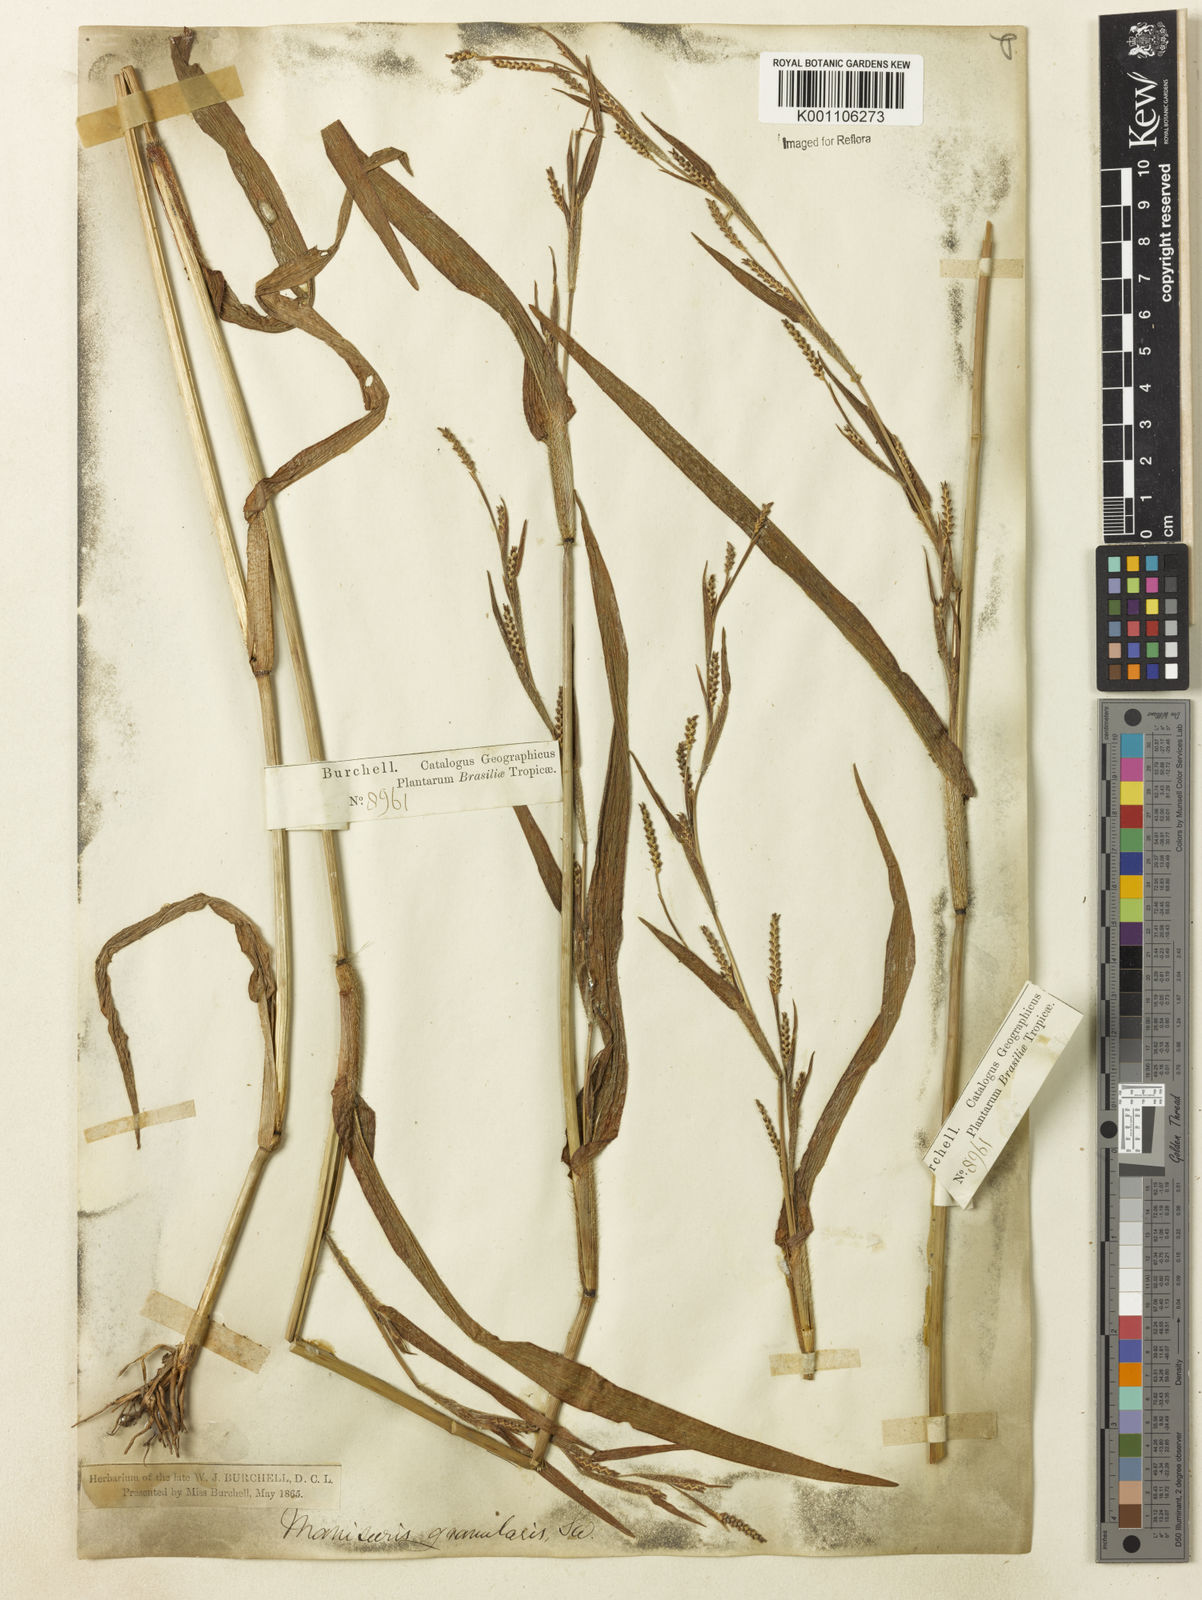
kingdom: Plantae
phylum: Tracheophyta
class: Liliopsida
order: Poales
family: Poaceae
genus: Hackelochloa
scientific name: Hackelochloa granularis
